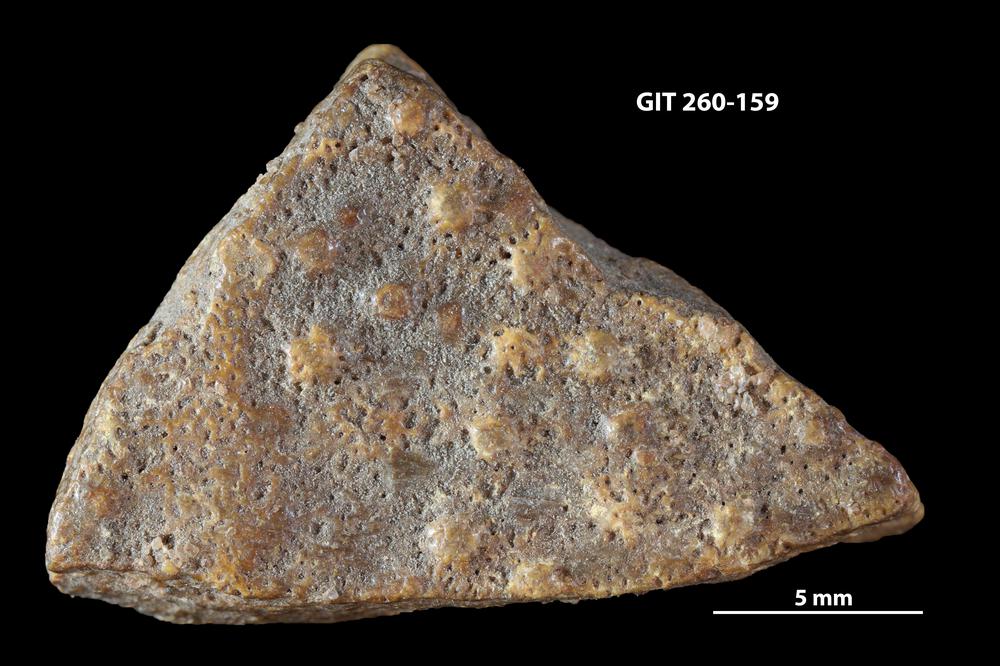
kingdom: Animalia
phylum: Chordata
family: Homostiidae
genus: Homostius
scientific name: Homostius
